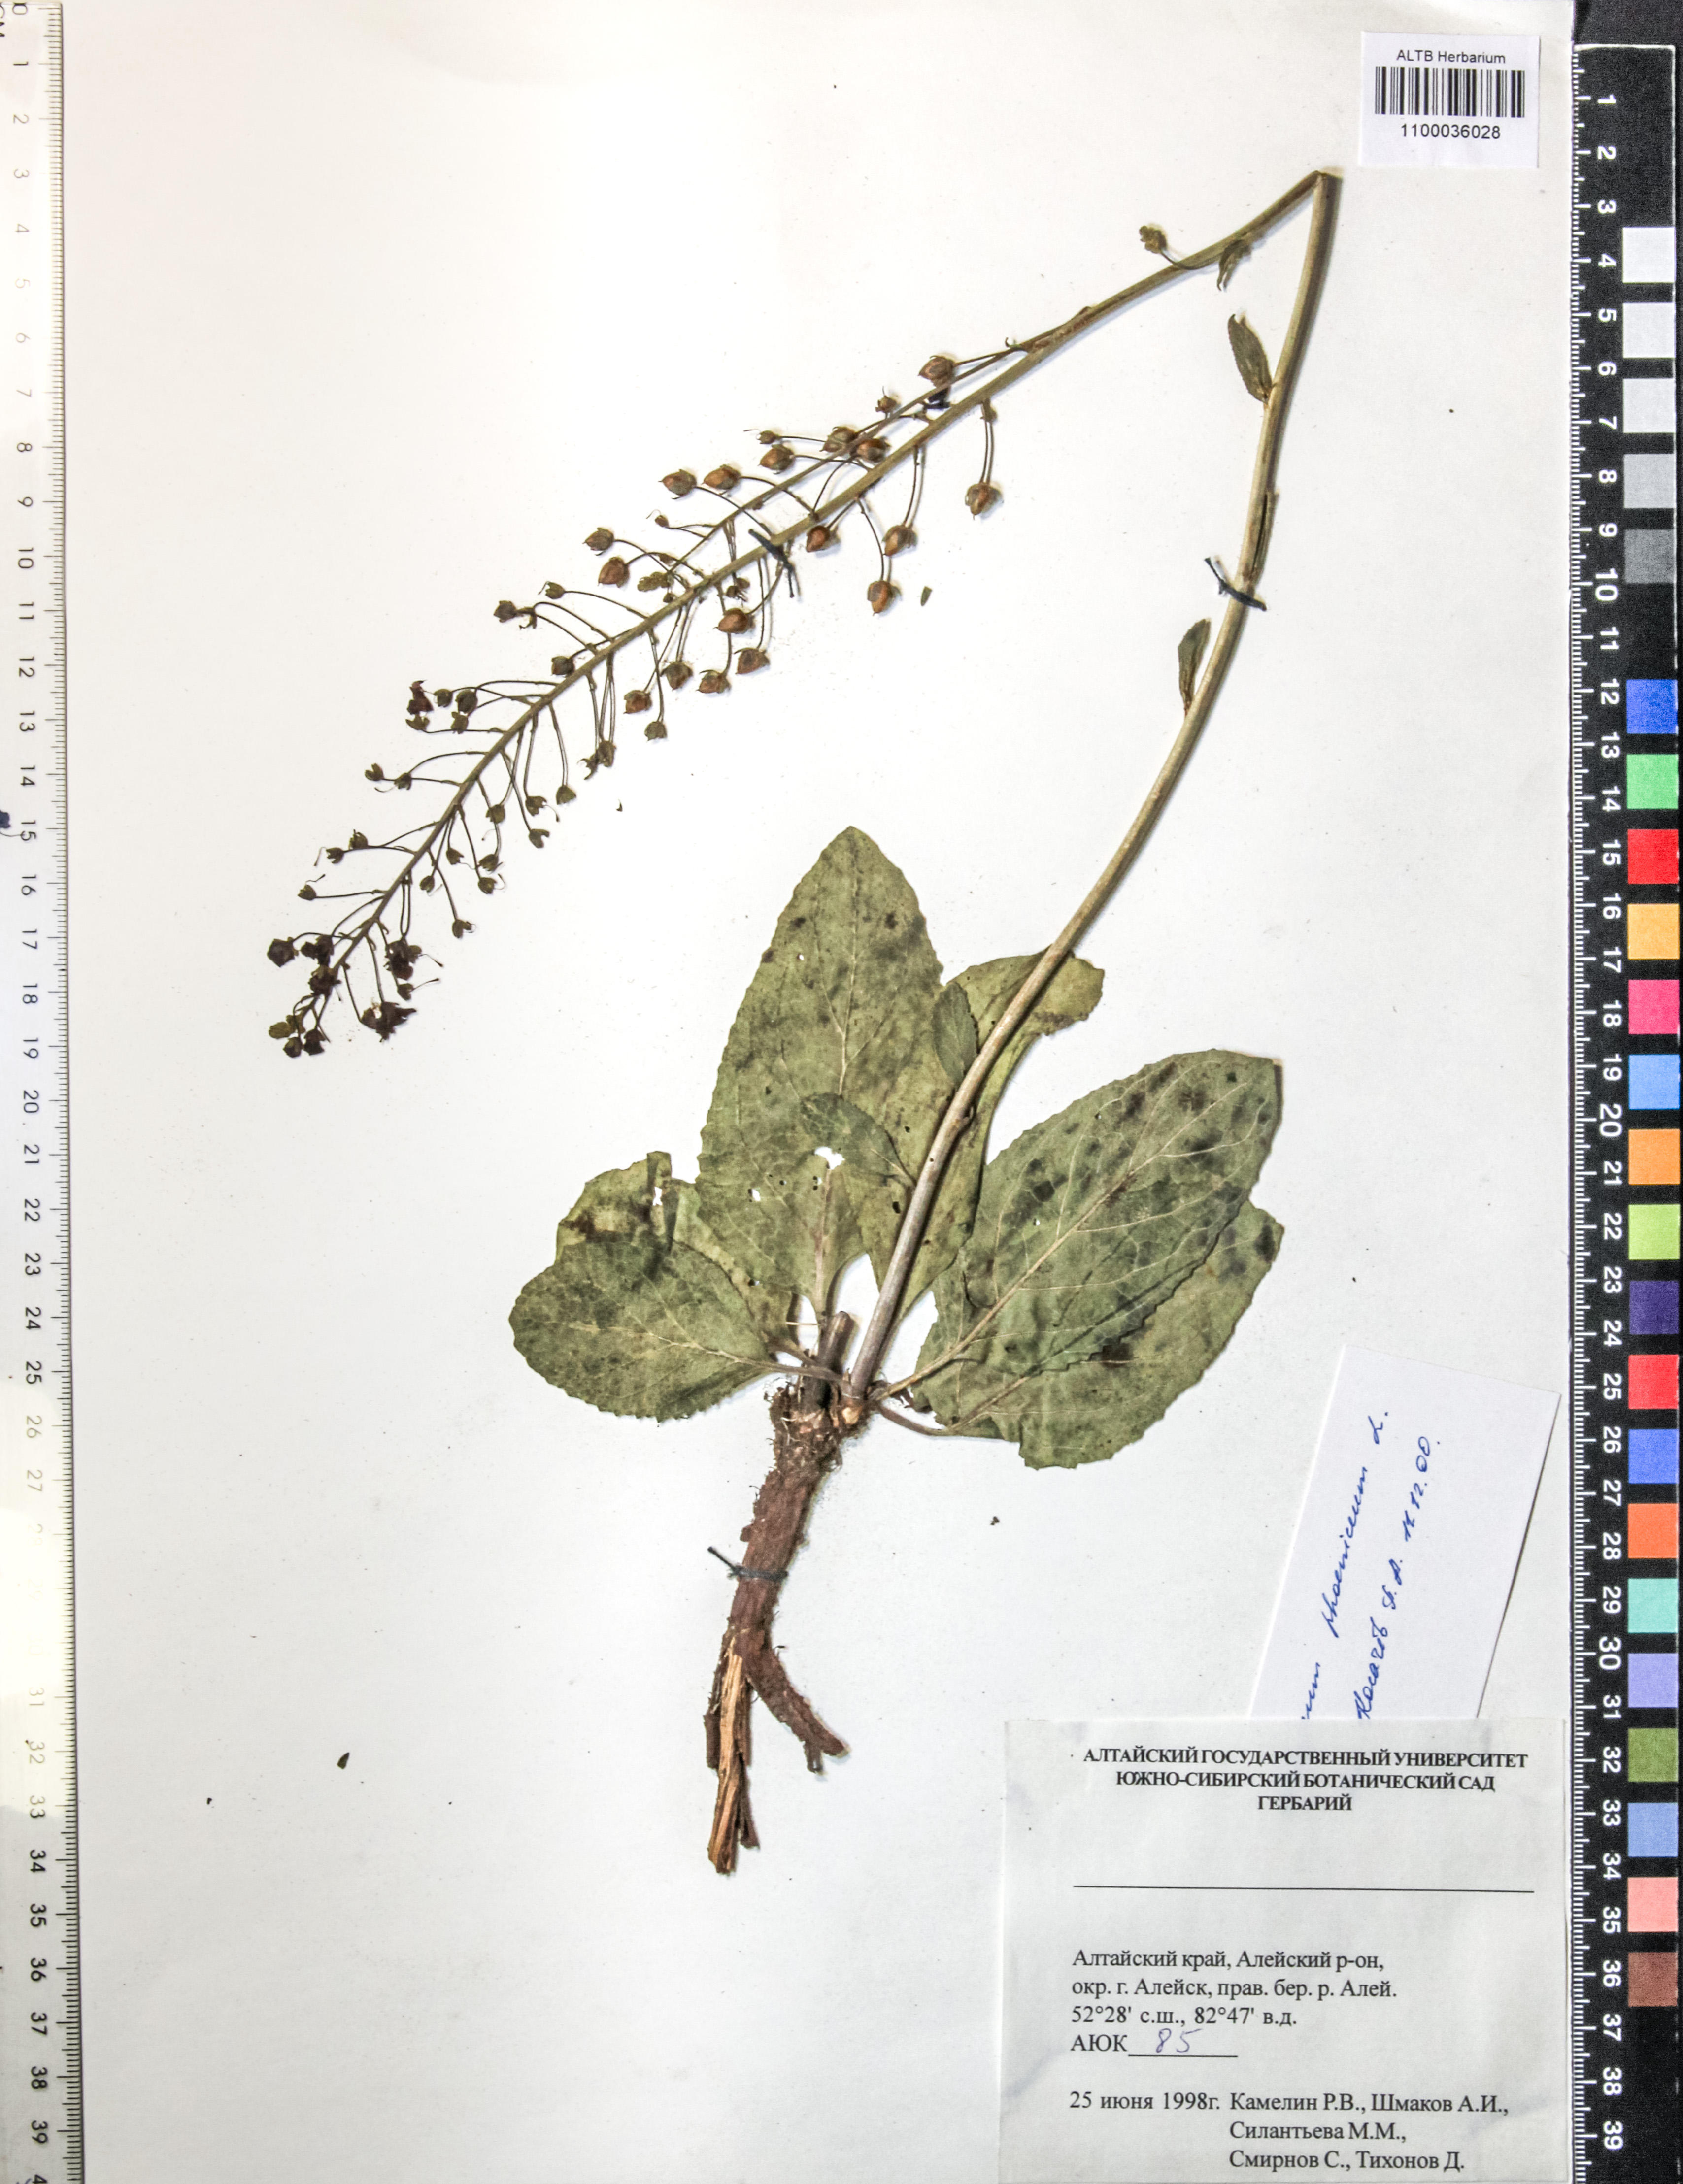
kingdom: Plantae
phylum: Tracheophyta
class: Magnoliopsida
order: Lamiales
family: Scrophulariaceae
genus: Verbascum
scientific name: Verbascum phoeniceum
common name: Purple mullein
